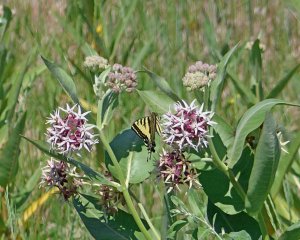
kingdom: Animalia
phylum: Arthropoda
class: Insecta
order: Lepidoptera
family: Papilionidae
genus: Pterourus
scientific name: Pterourus rutulus
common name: Western Tiger Swallowtail
